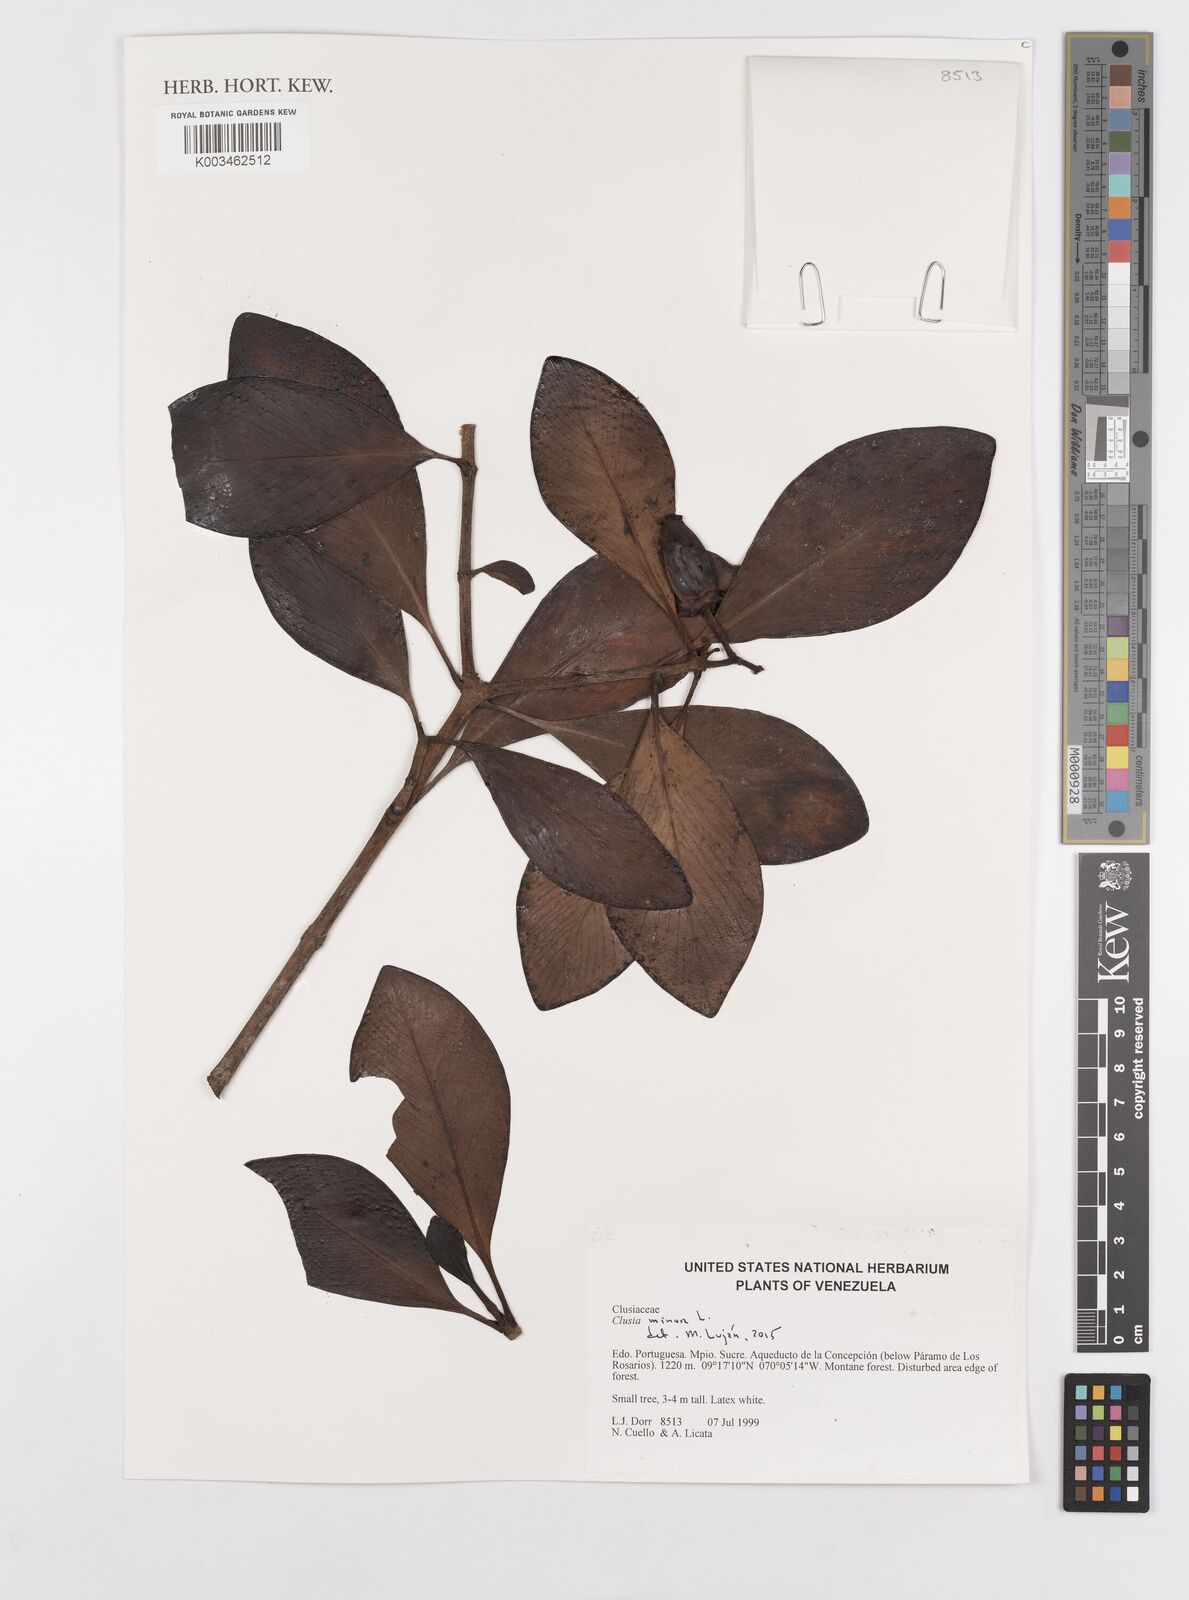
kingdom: Plantae
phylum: Tracheophyta
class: Magnoliopsida
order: Malpighiales
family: Clusiaceae
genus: Clusia
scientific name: Clusia minor
